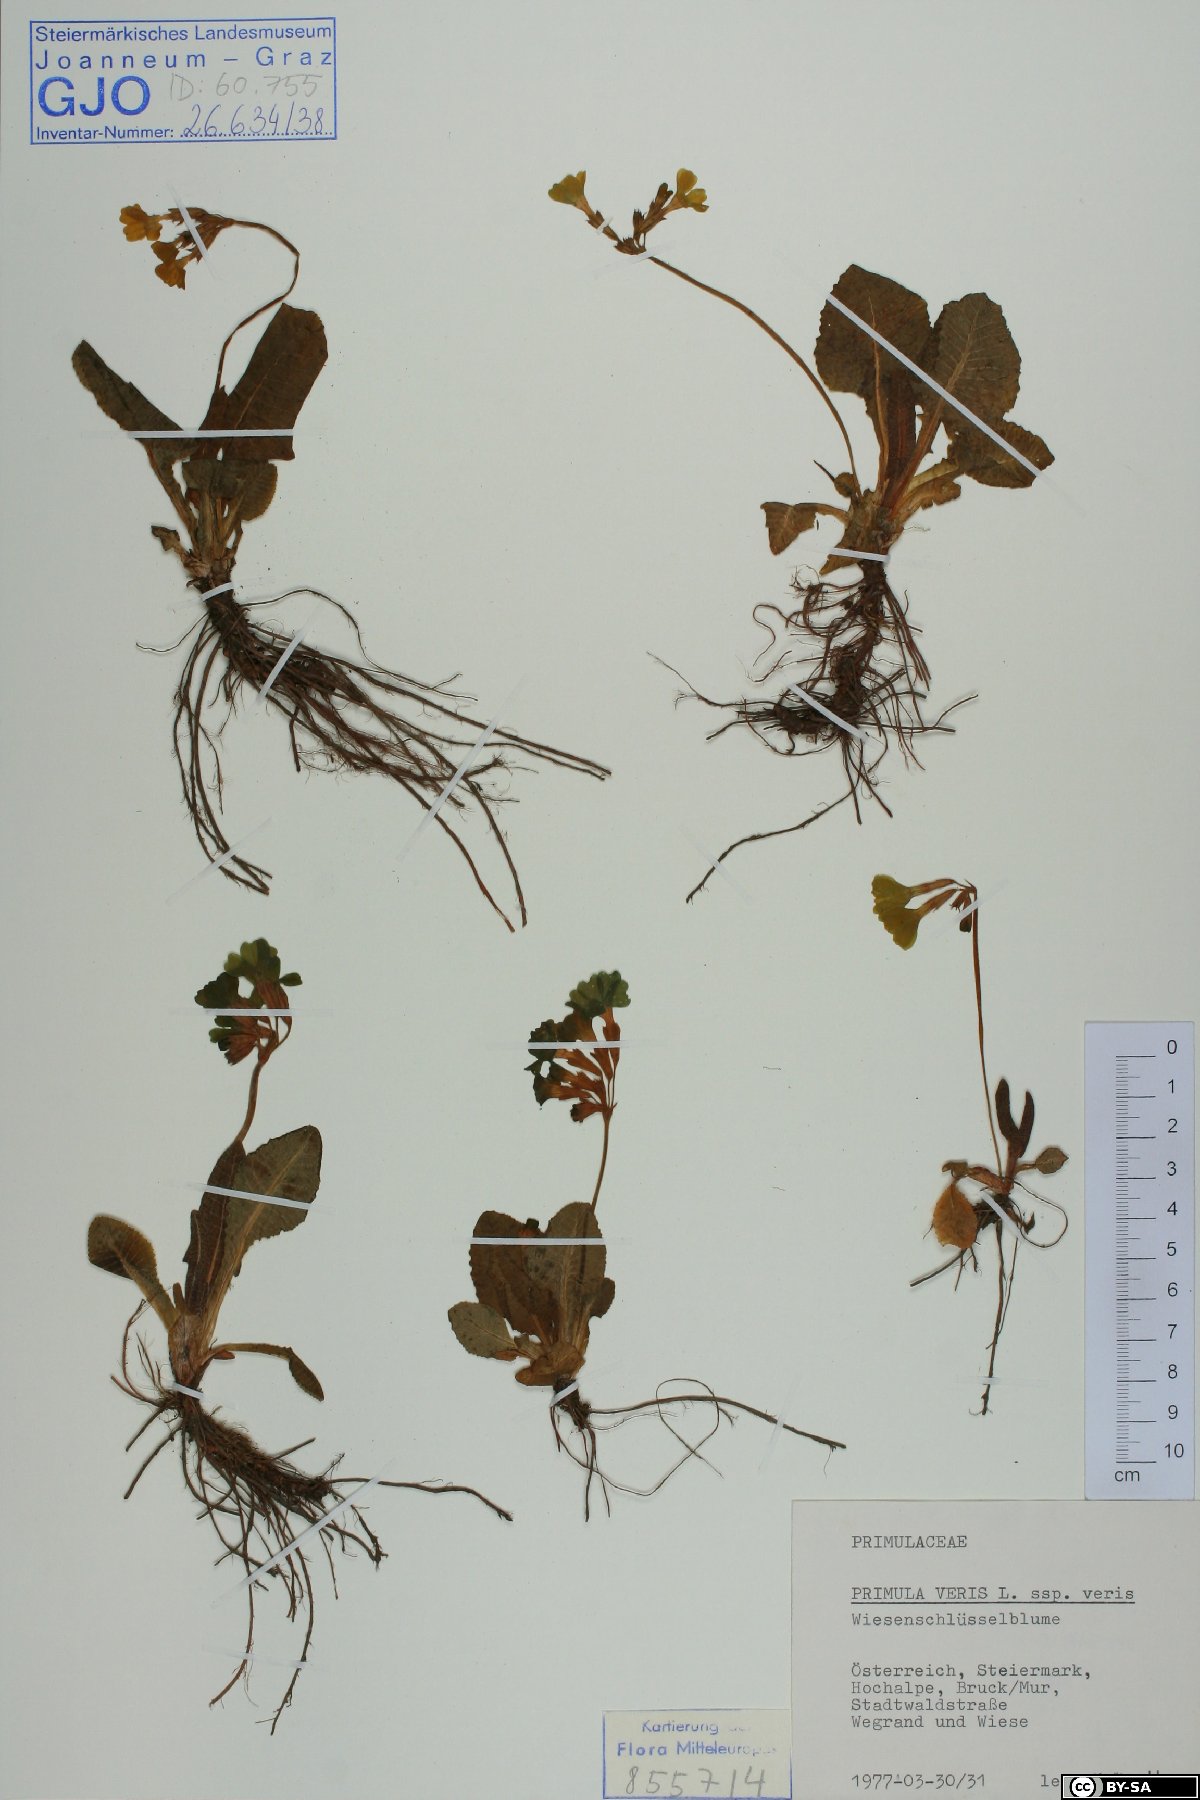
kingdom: Plantae
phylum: Tracheophyta
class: Magnoliopsida
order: Ericales
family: Primulaceae
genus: Primula
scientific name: Primula elatior
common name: Oxlip
